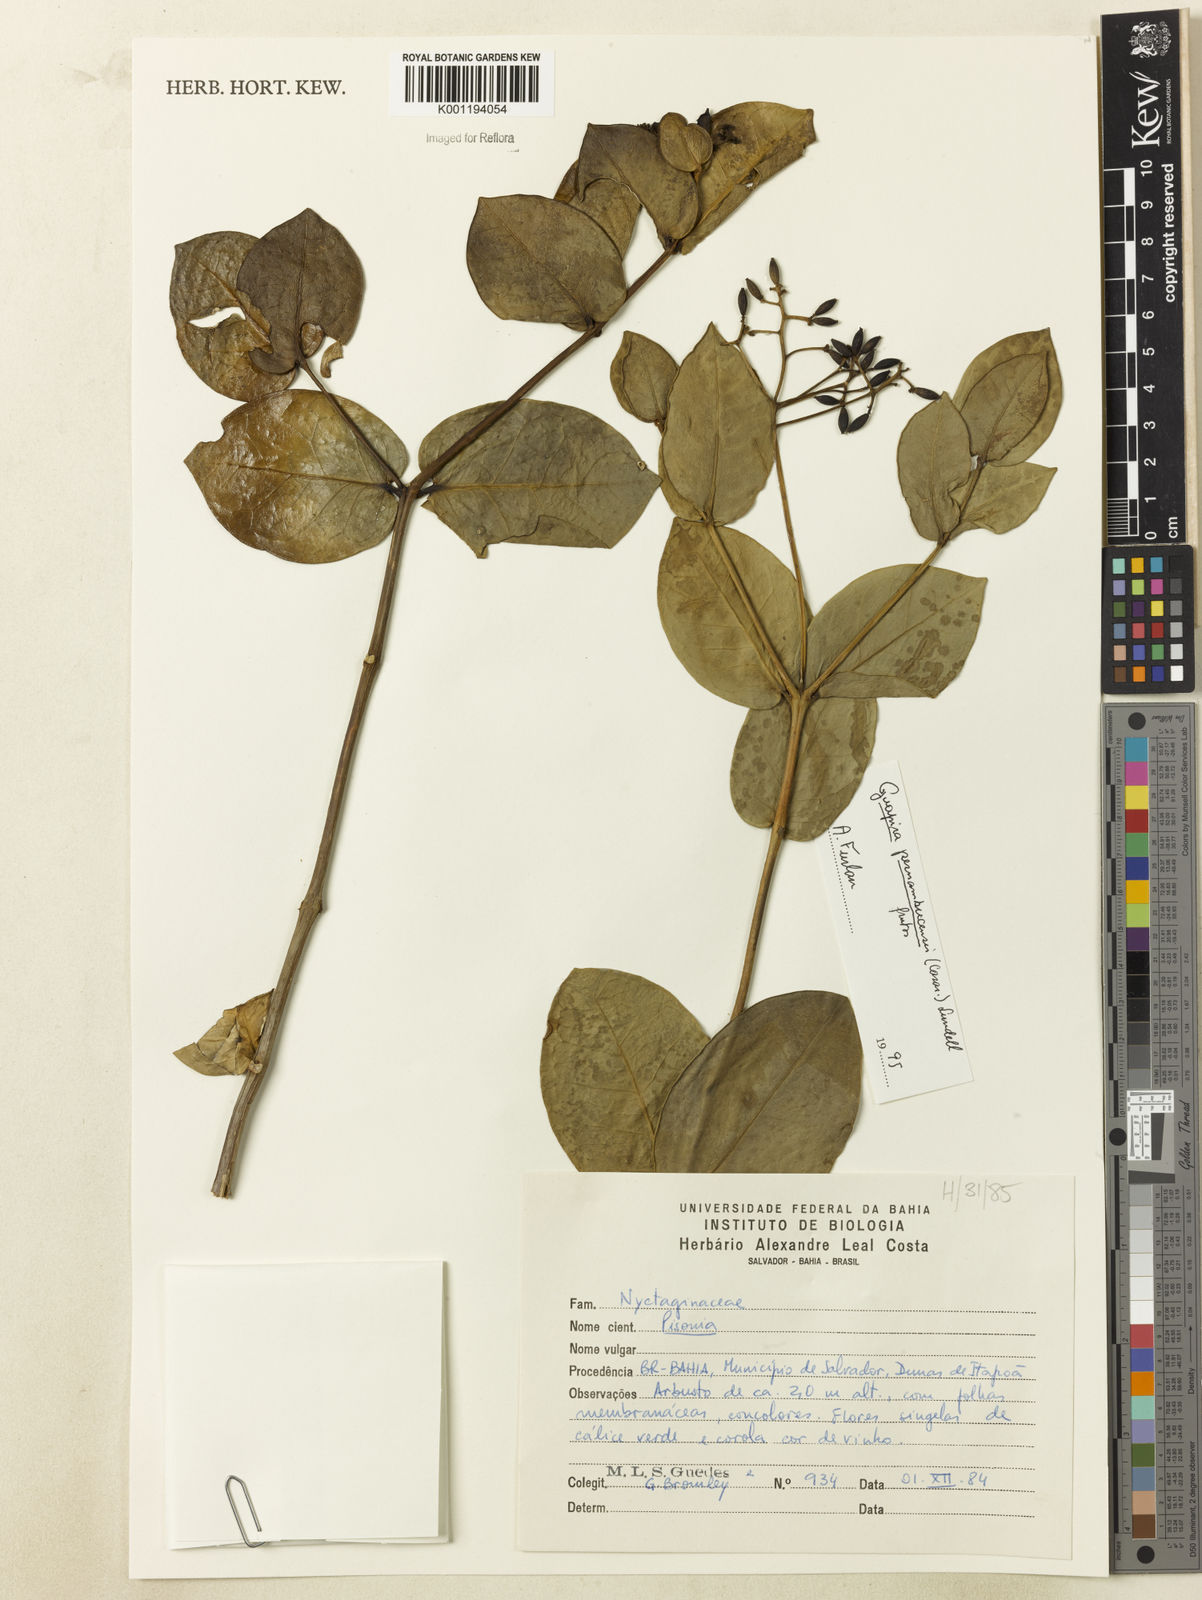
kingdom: Plantae
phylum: Tracheophyta
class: Magnoliopsida
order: Caryophyllales
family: Nyctaginaceae
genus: Guapira
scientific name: Guapira pernambucensis
